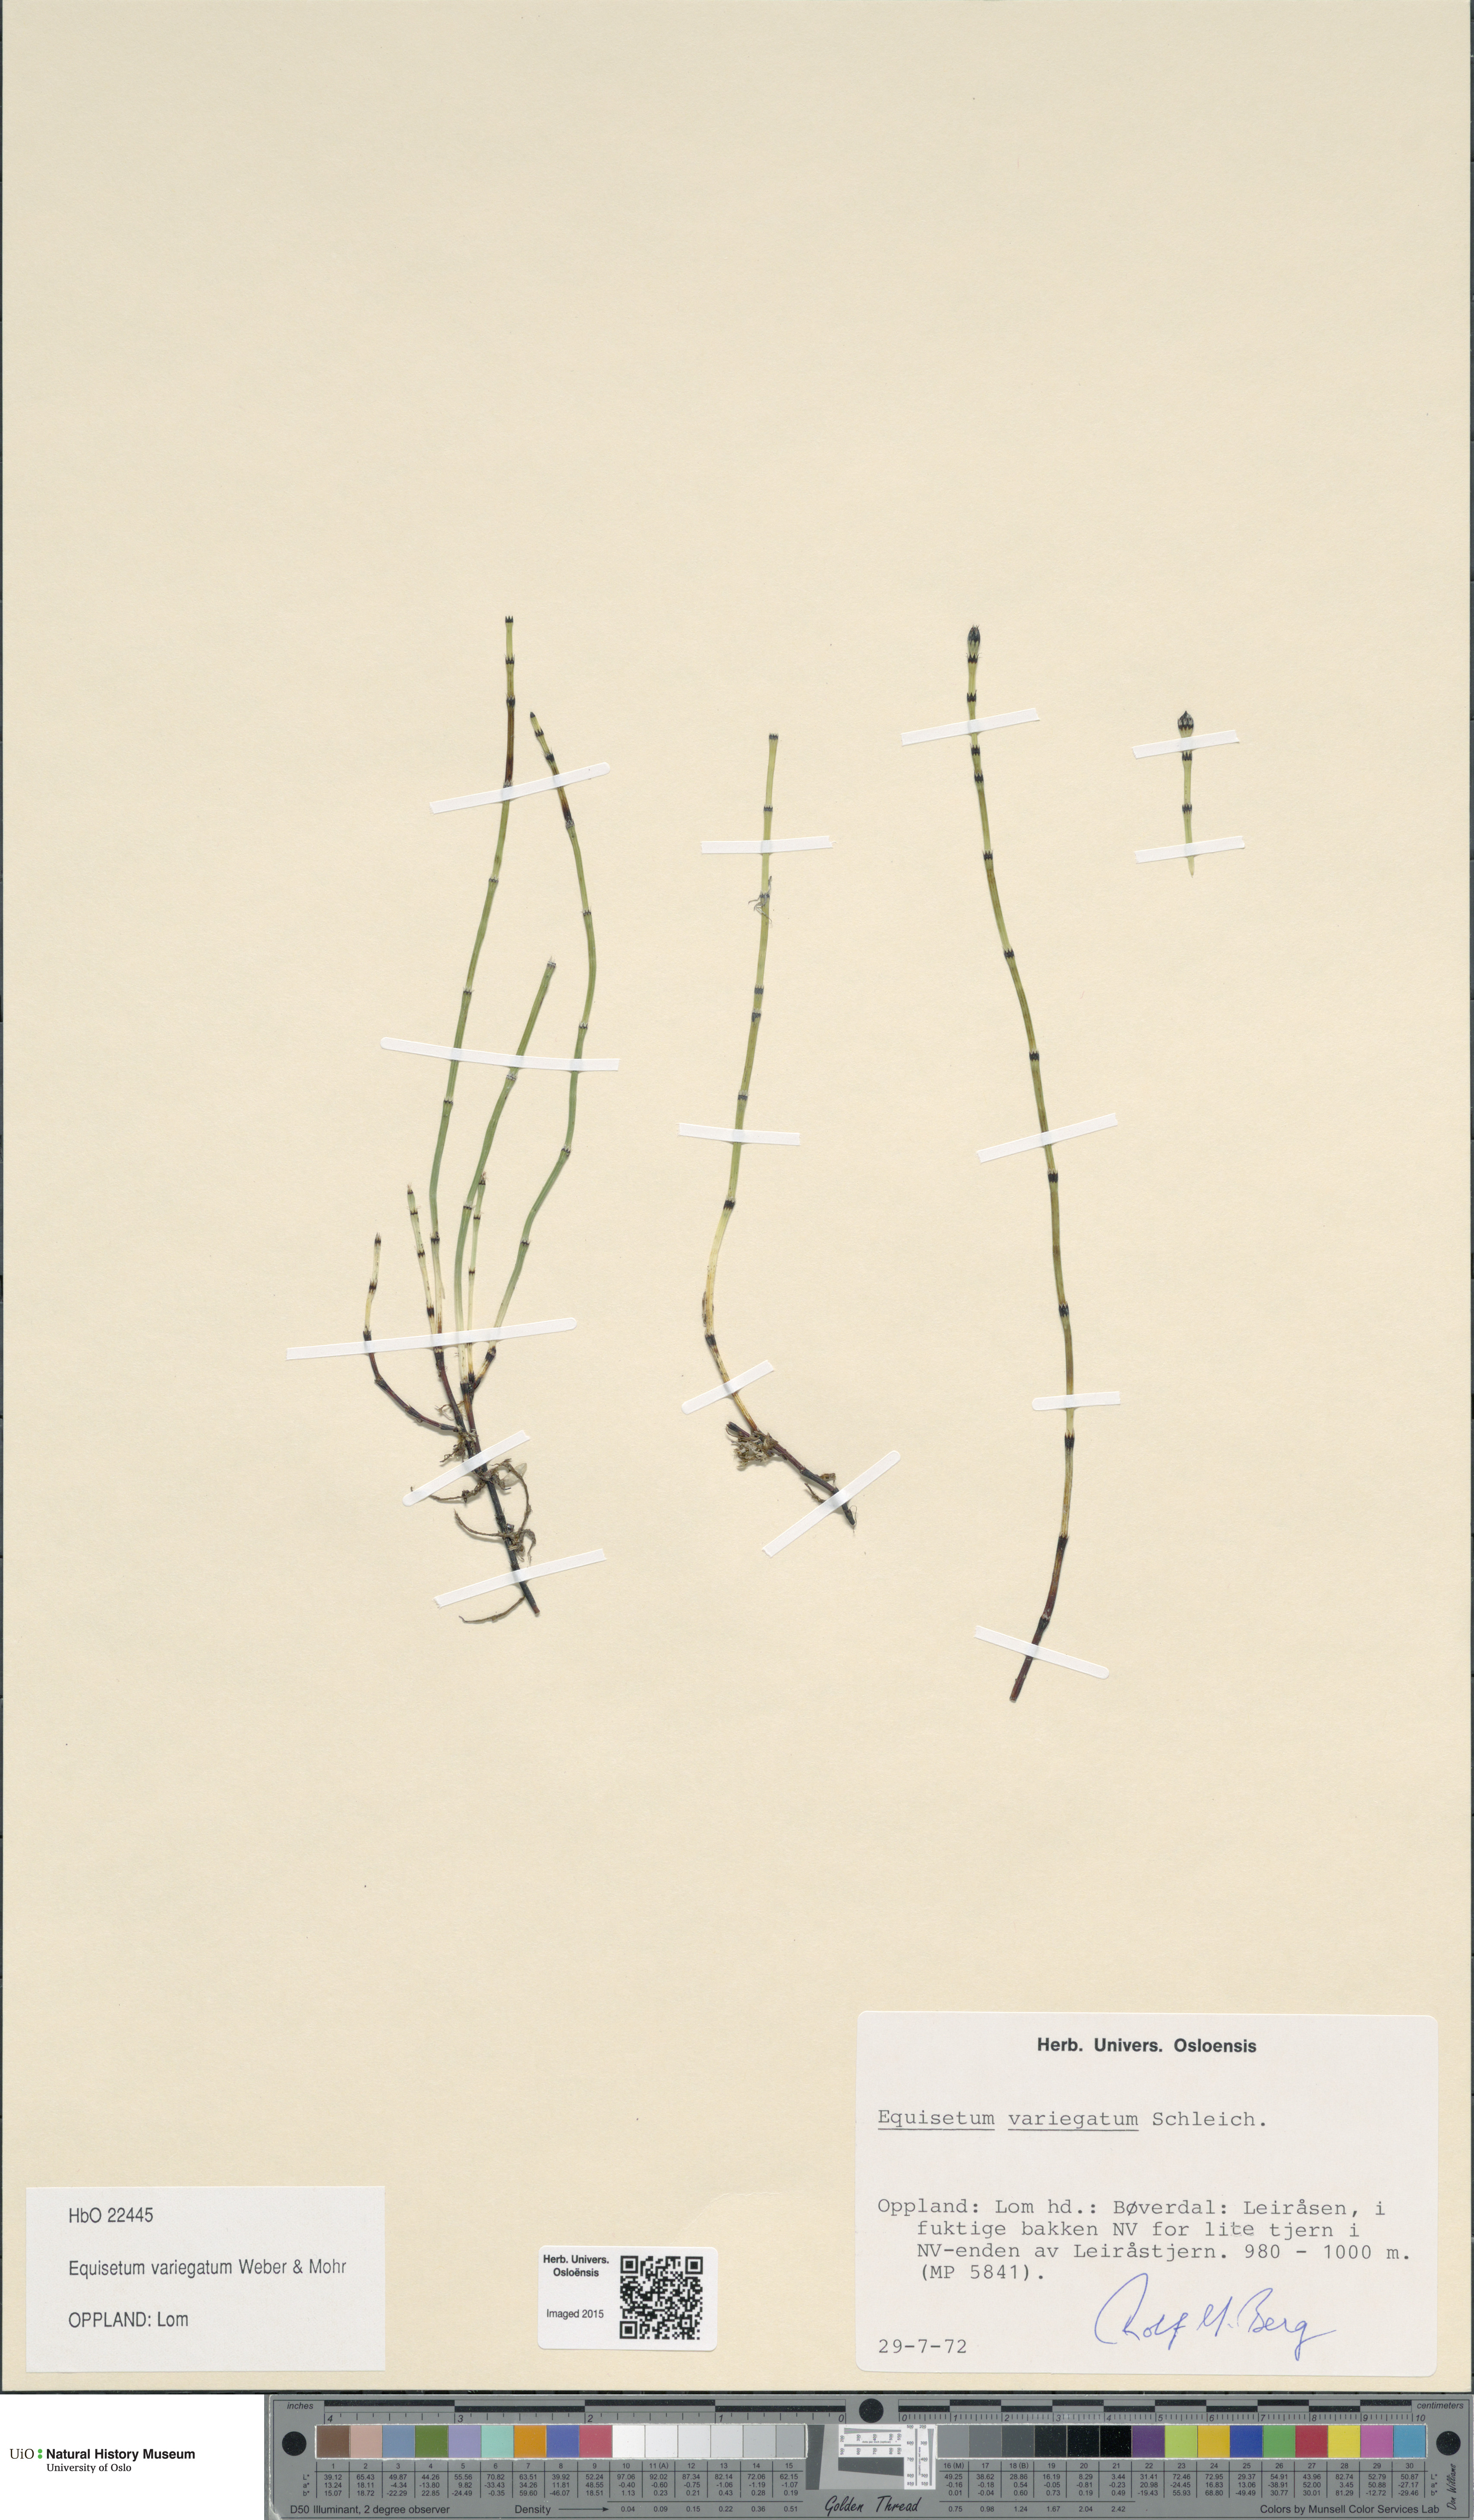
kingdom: Plantae
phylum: Tracheophyta
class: Polypodiopsida
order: Equisetales
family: Equisetaceae
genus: Equisetum
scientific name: Equisetum variegatum
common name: Variegated horsetail
